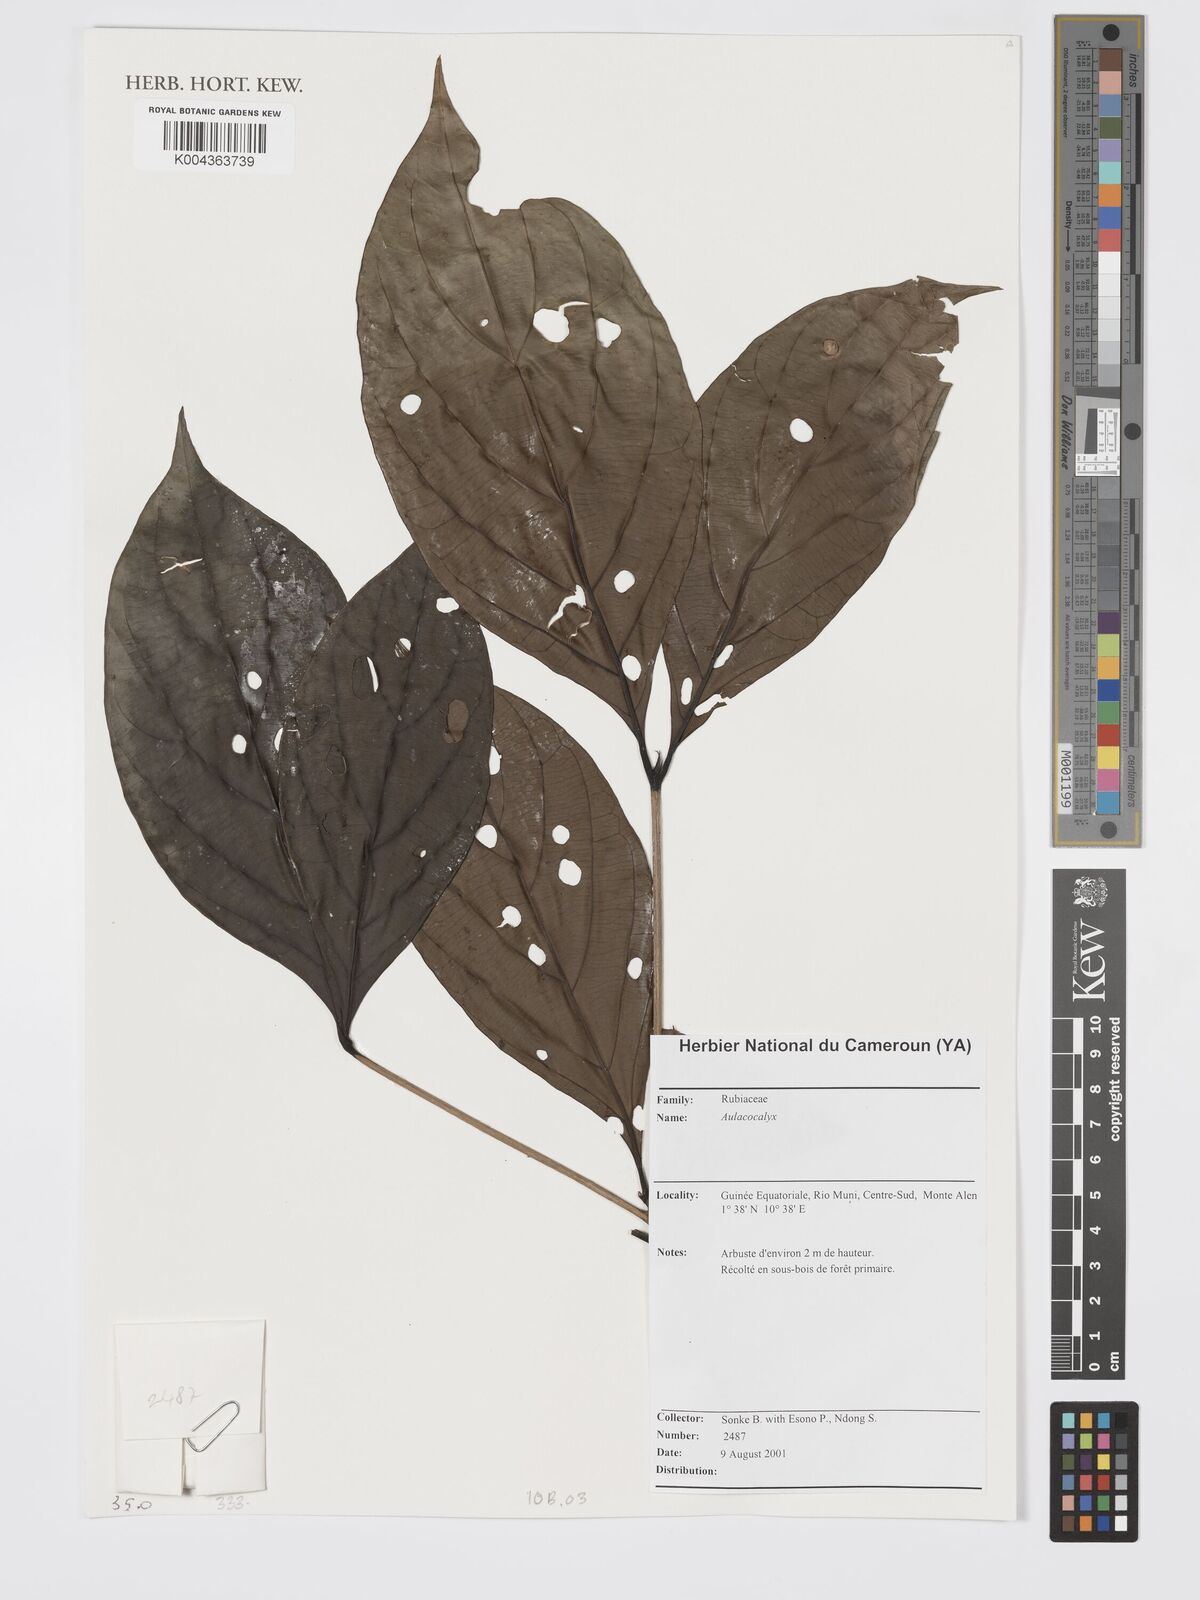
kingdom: Plantae
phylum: Tracheophyta
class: Magnoliopsida
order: Gentianales
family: Rubiaceae
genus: Aulacocalyx
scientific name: Aulacocalyx
